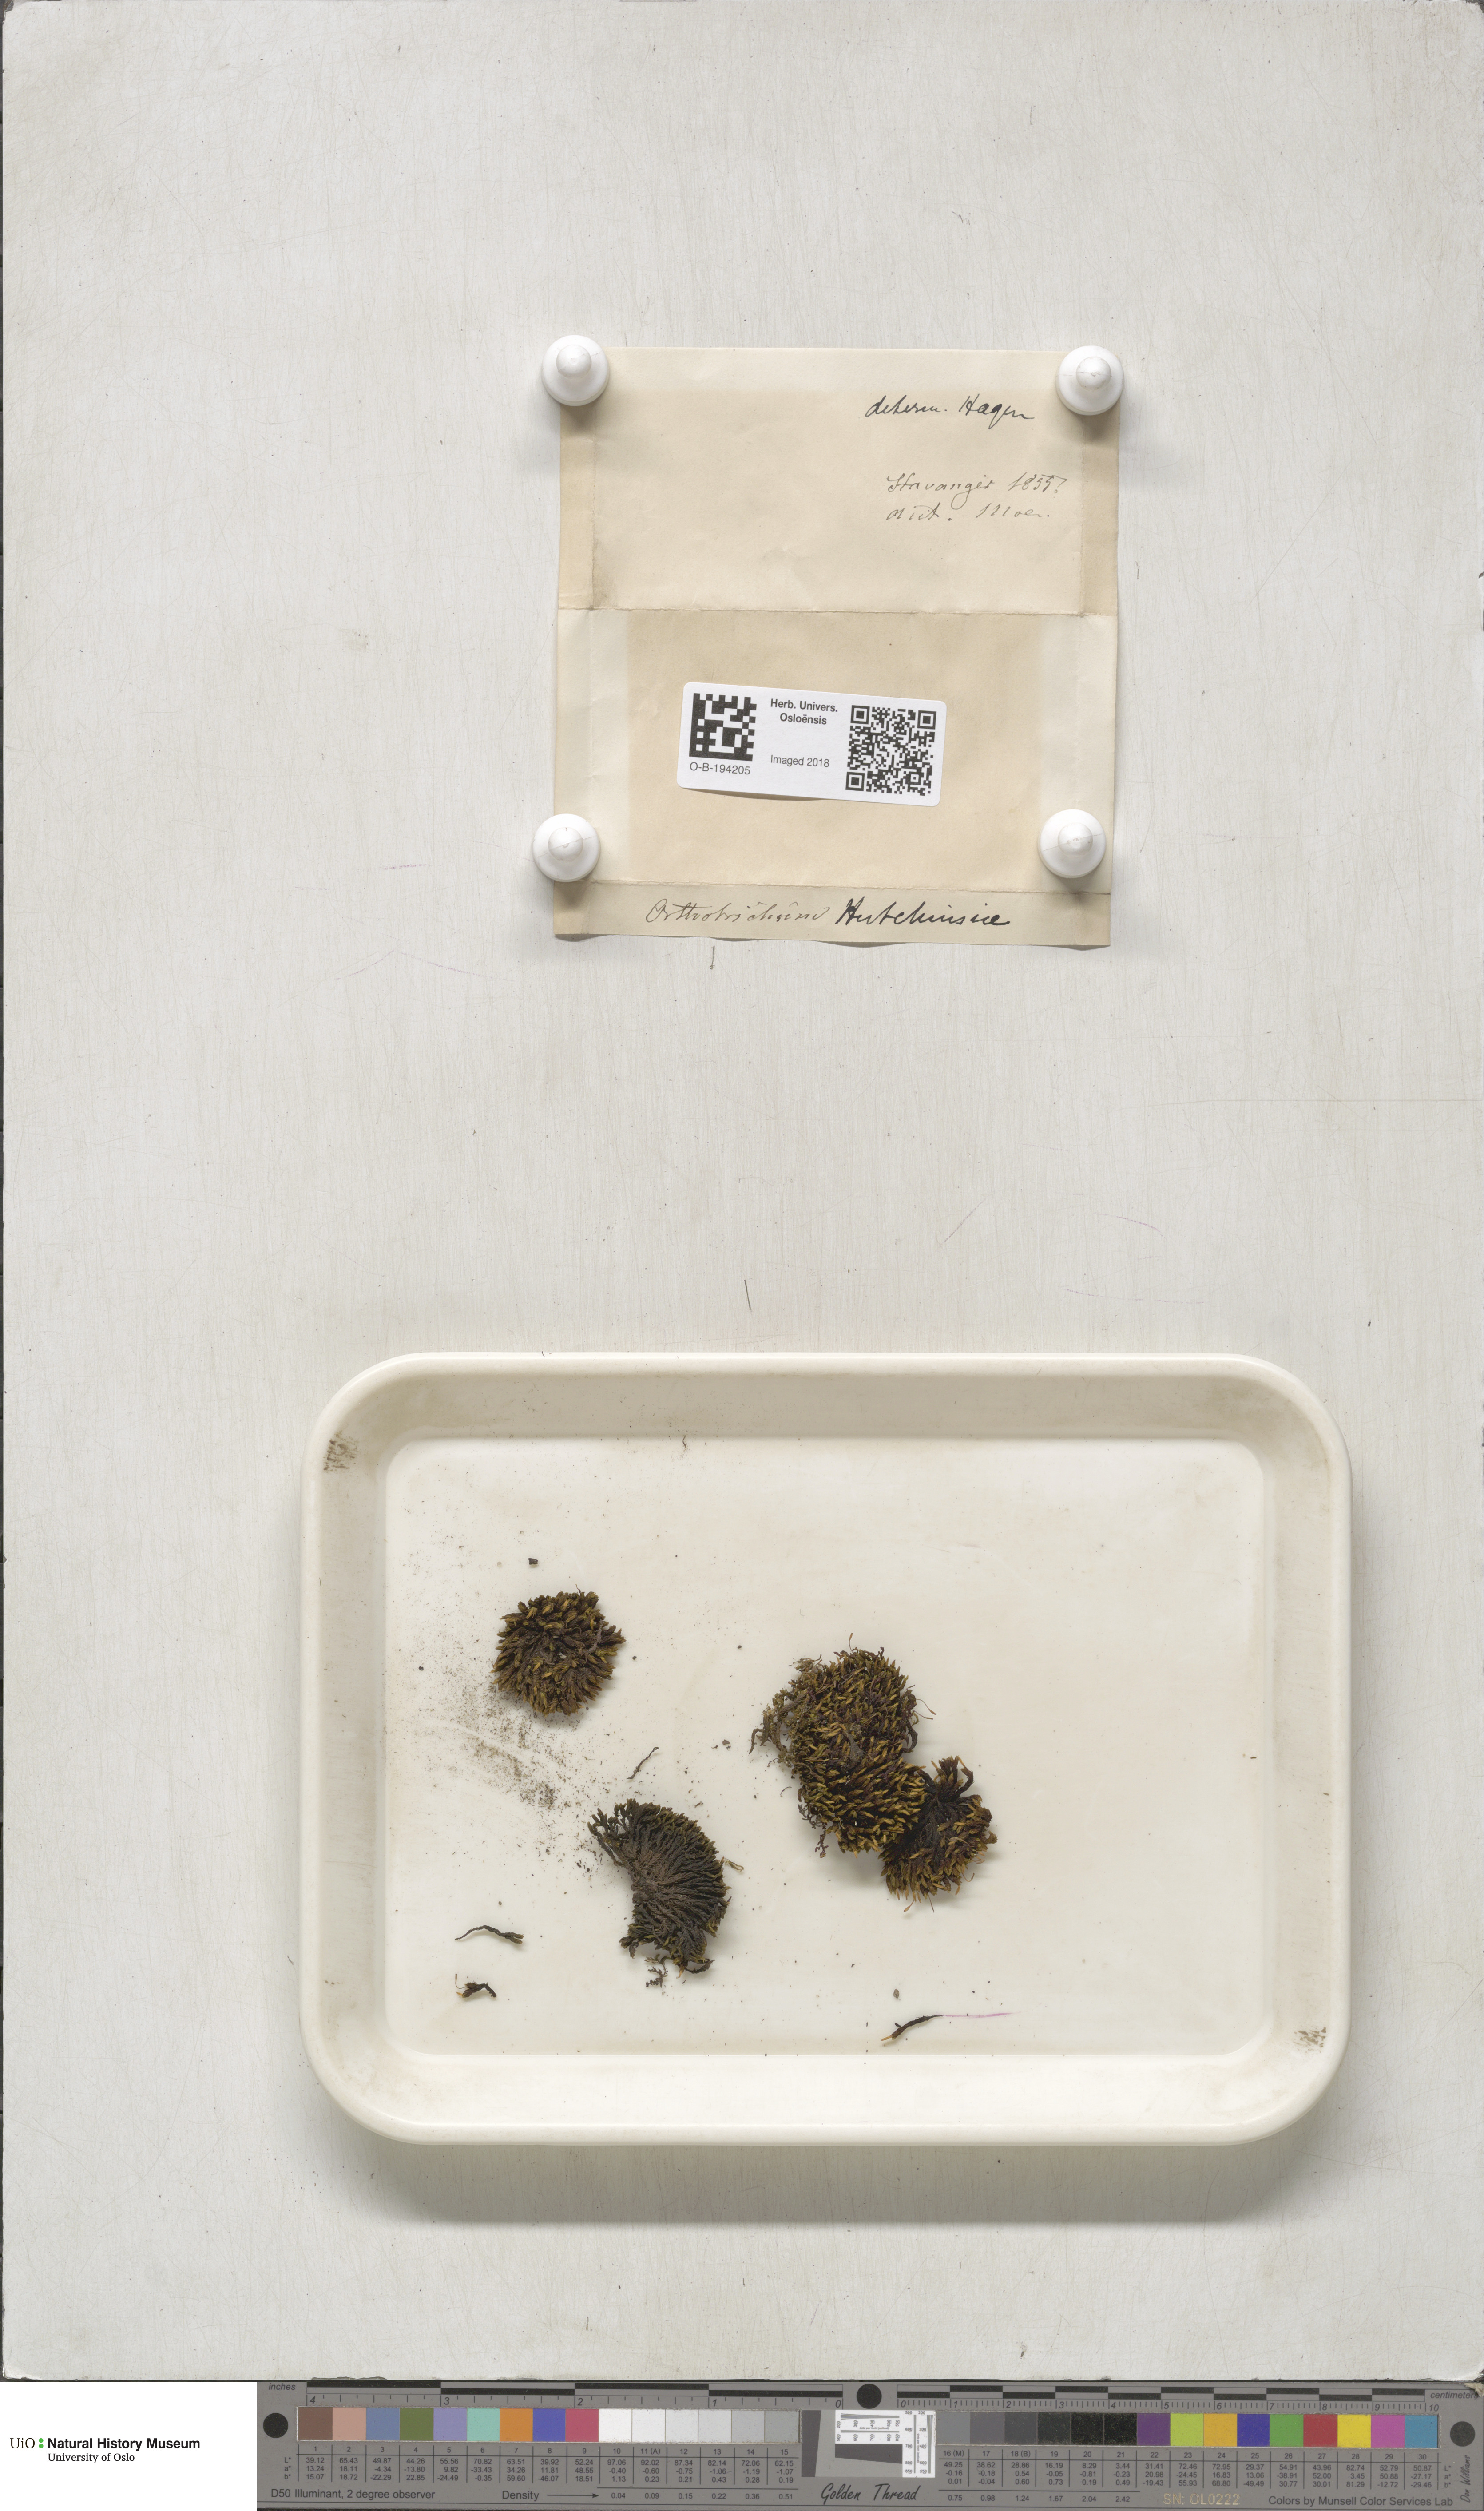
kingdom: Plantae
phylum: Bryophyta
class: Bryopsida
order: Orthotrichales
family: Orthotrichaceae
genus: Ulota
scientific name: Ulota hutchinsiae
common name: Hutchins' pincushion
